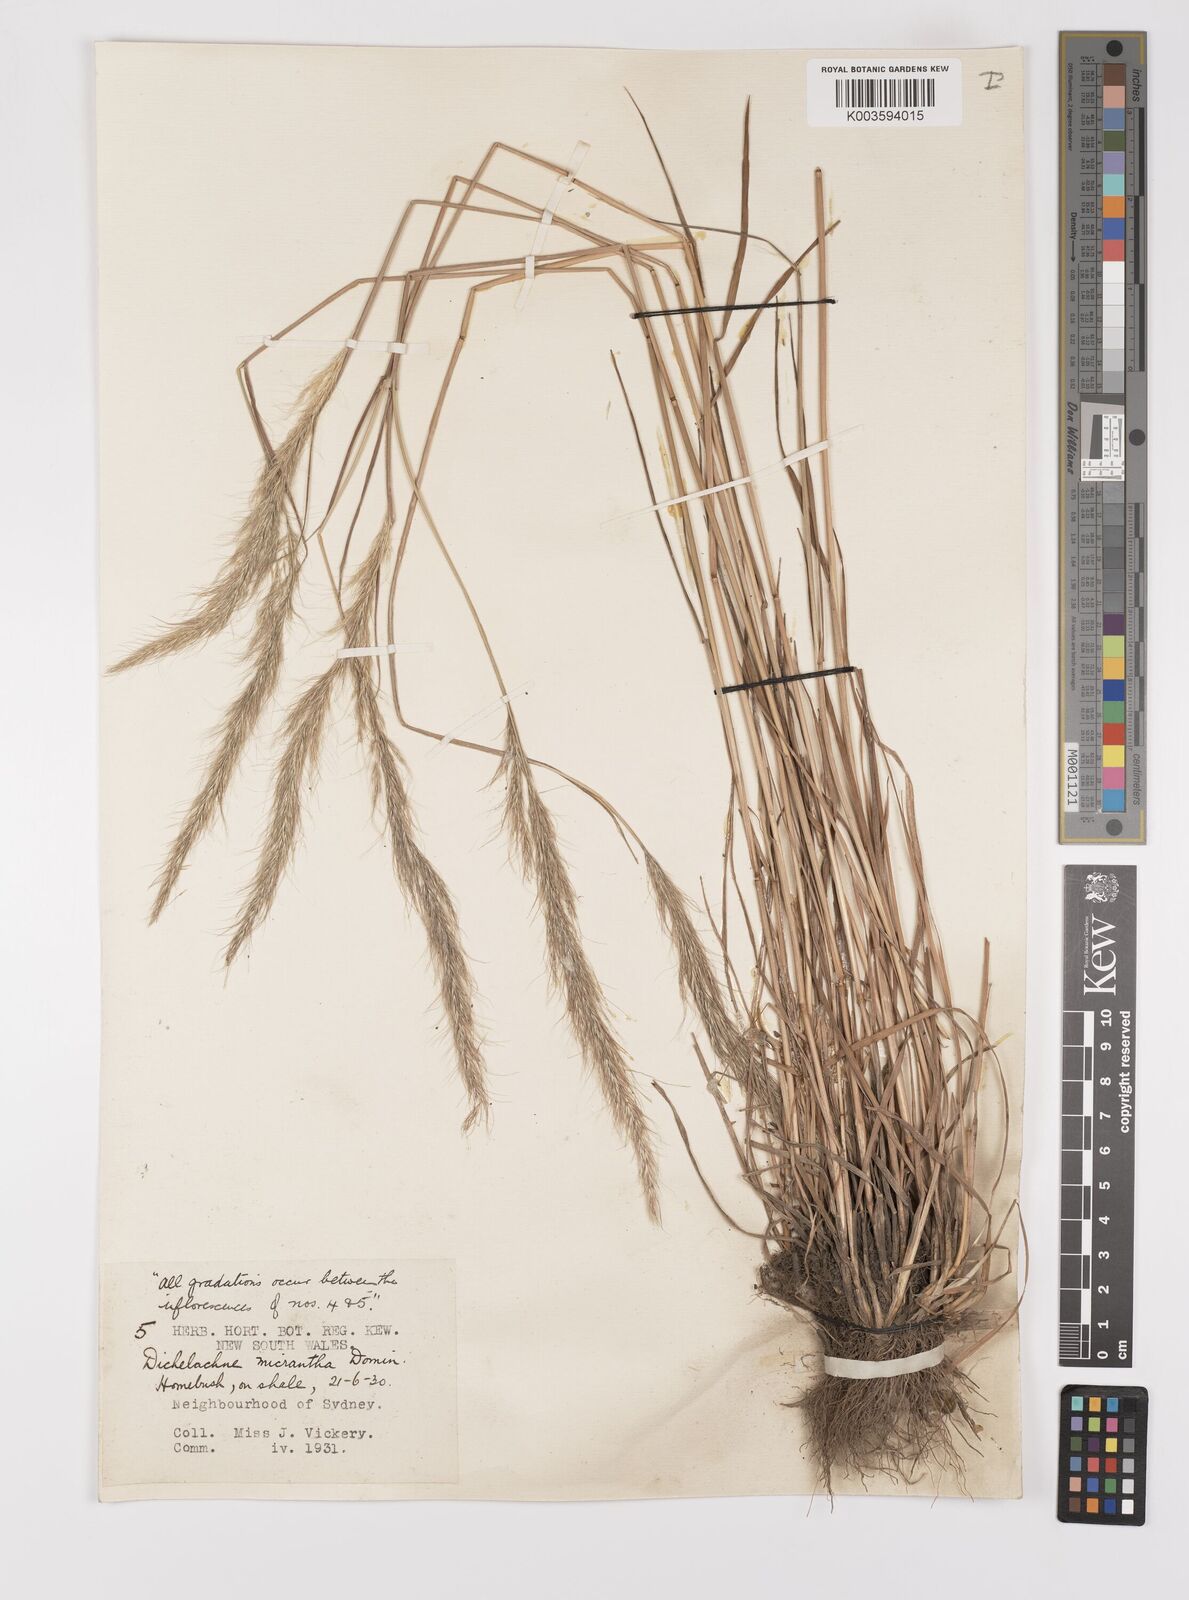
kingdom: Plantae
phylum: Tracheophyta
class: Liliopsida
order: Poales
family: Poaceae
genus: Dichelachne
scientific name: Dichelachne micrantha
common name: Plumegrass
